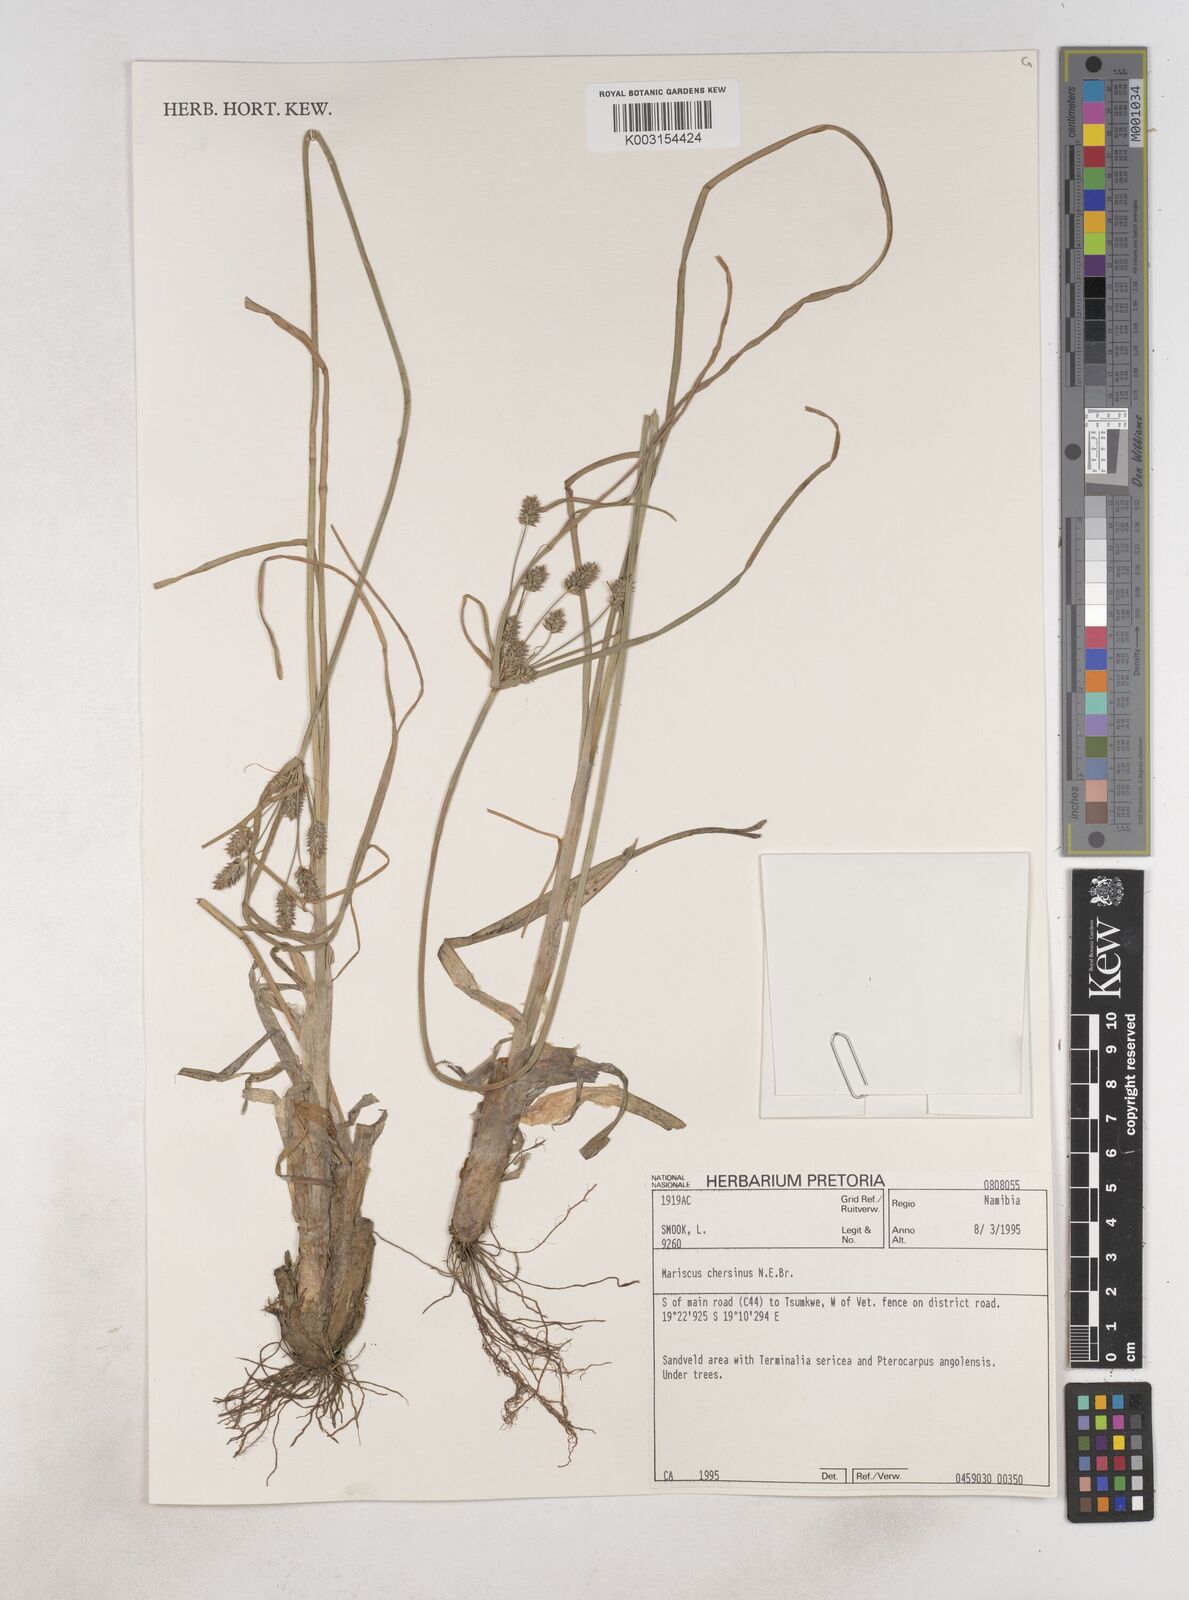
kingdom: Plantae
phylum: Tracheophyta
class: Liliopsida
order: Poales
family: Cyperaceae
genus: Cyperus
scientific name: Cyperus chersinus
